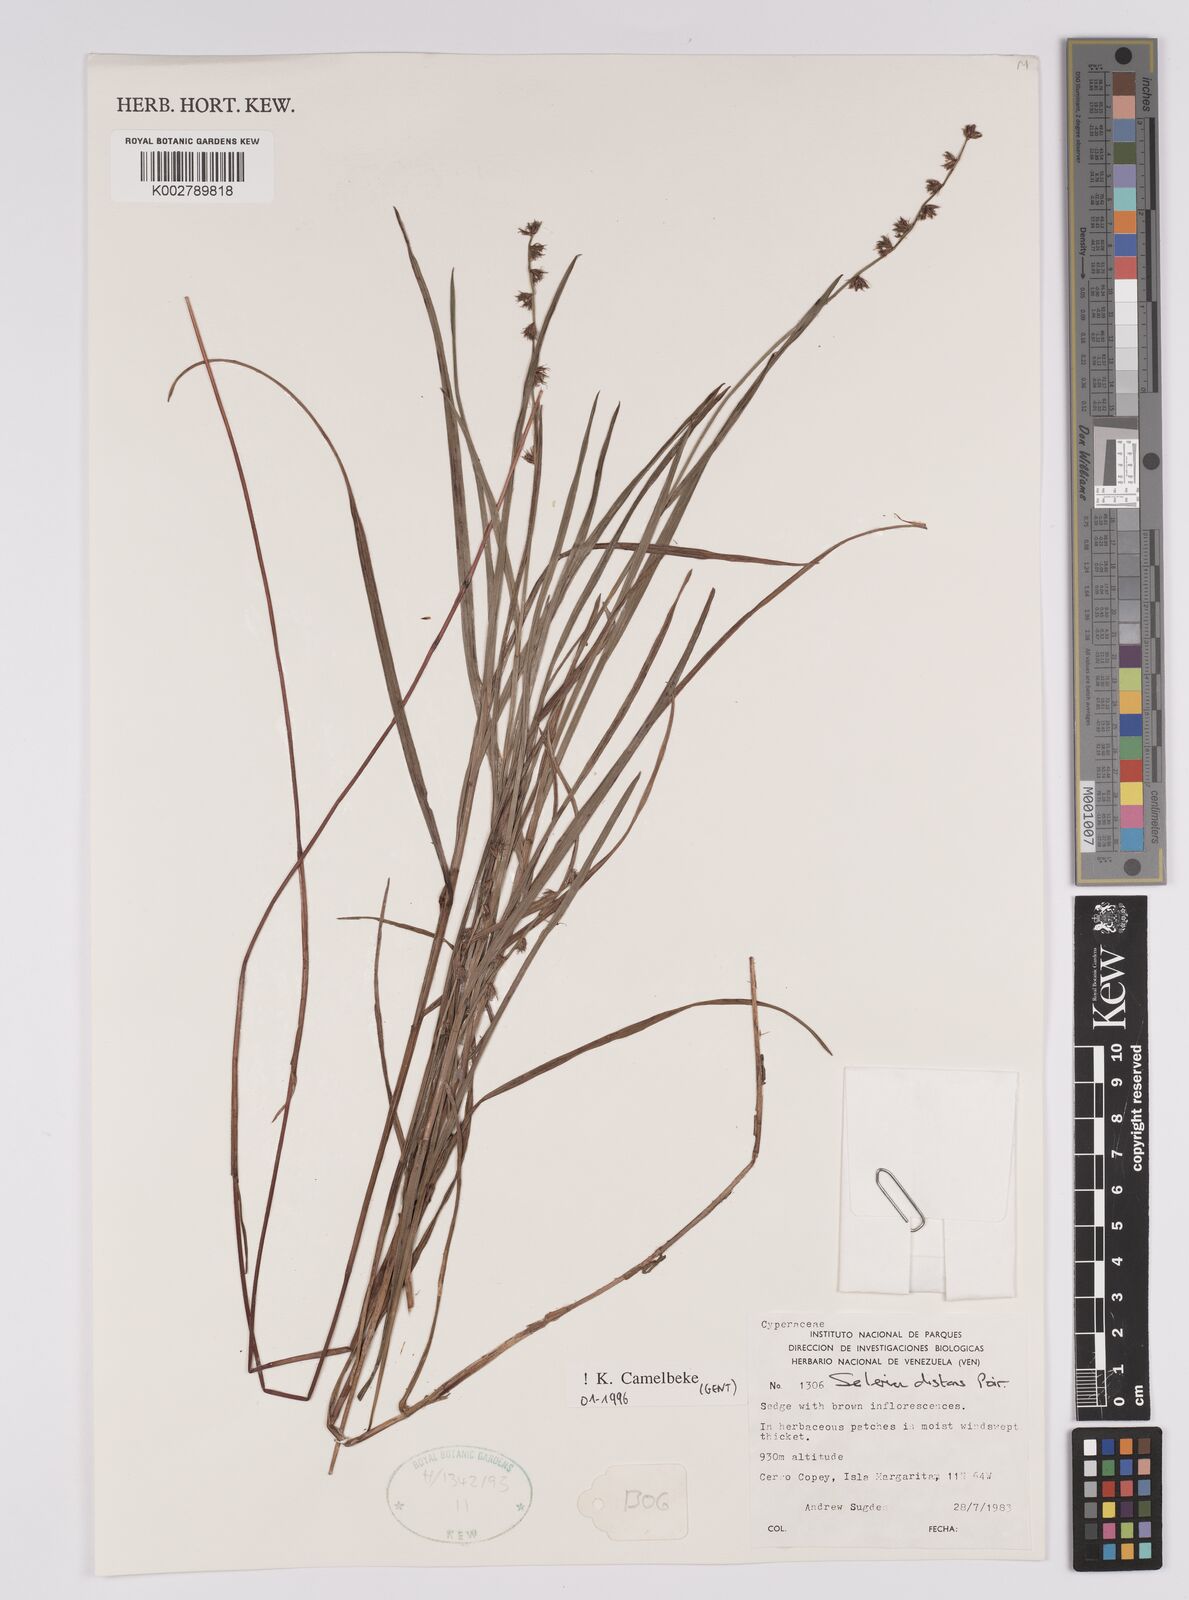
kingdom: Plantae
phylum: Tracheophyta
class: Liliopsida
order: Poales
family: Cyperaceae
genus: Scleria
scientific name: Scleria distans
